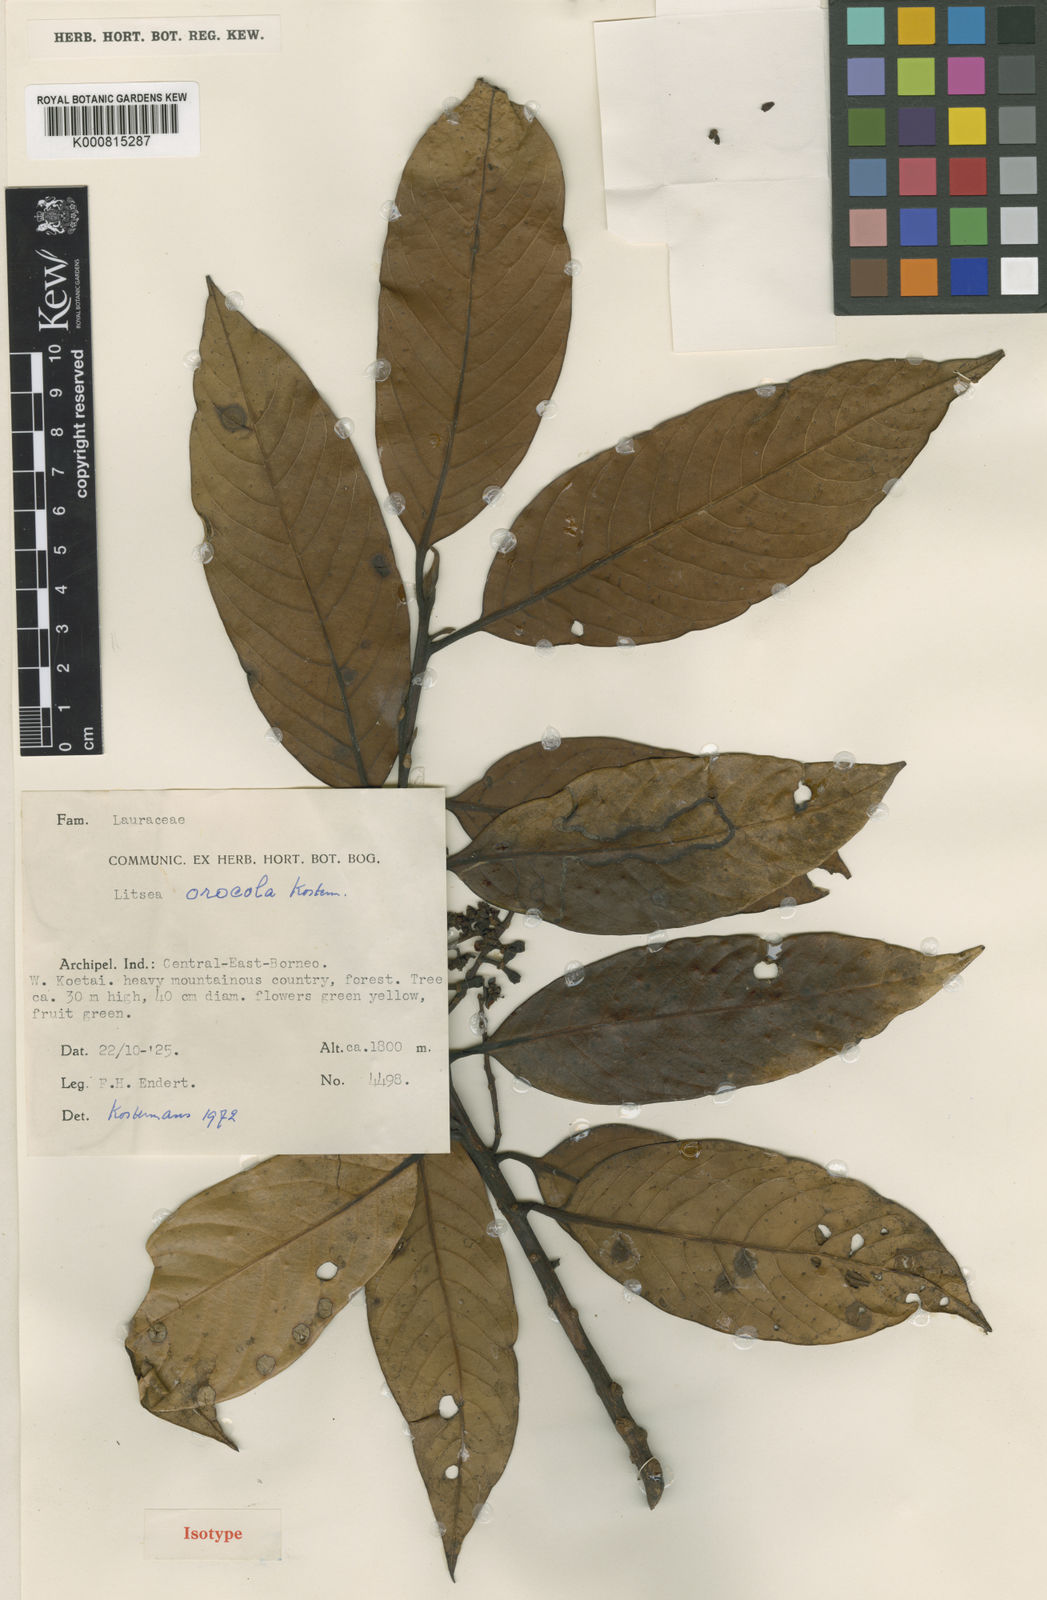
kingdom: Plantae
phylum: Tracheophyta
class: Magnoliopsida
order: Laurales
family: Lauraceae
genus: Litsea
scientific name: Litsea orocola
